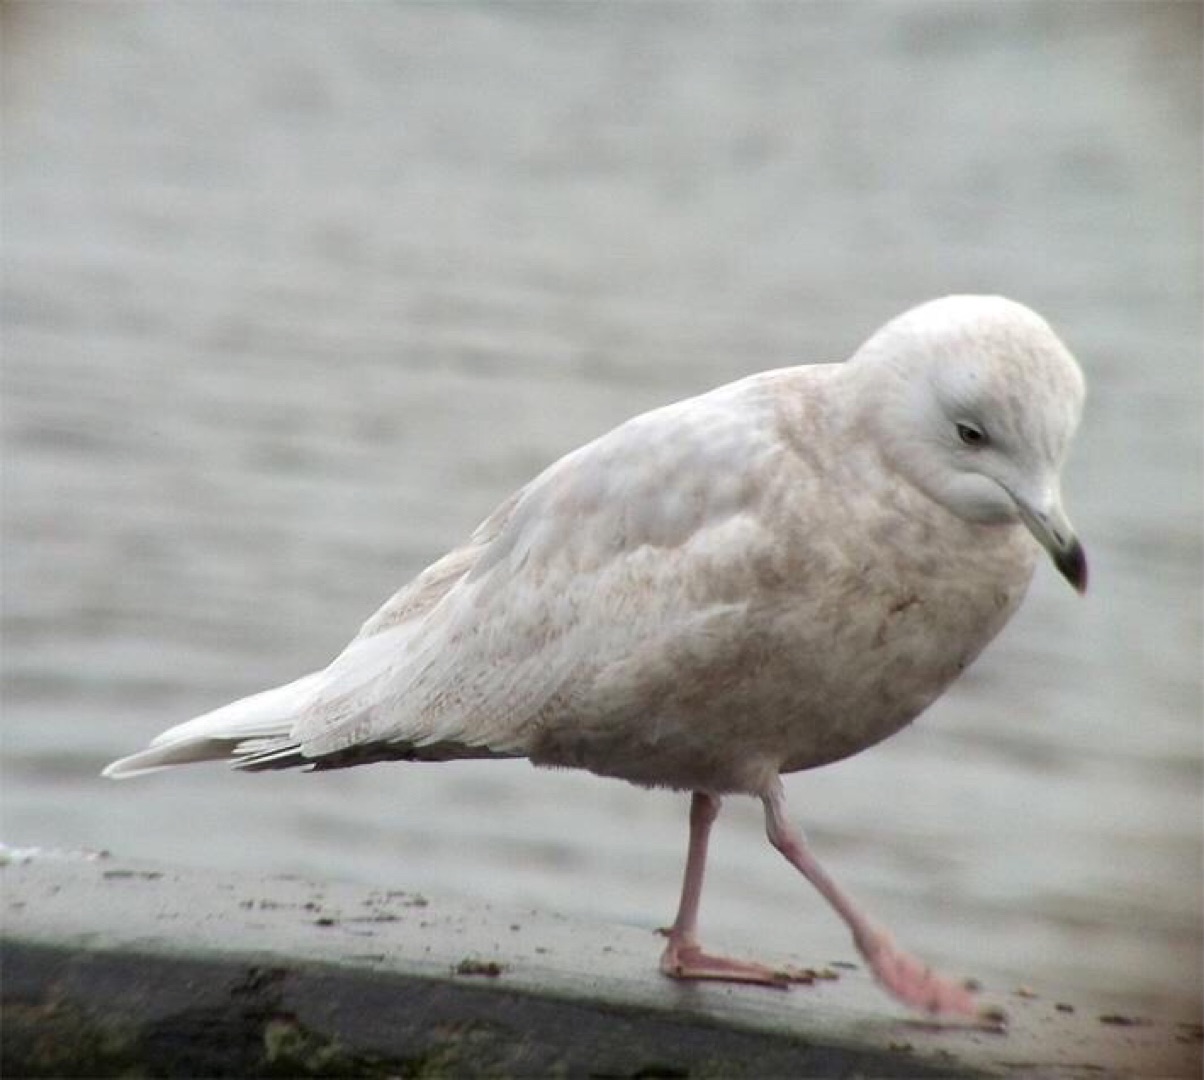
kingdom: Animalia
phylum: Chordata
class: Aves
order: Charadriiformes
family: Laridae
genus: Larus
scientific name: Larus glaucoides
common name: Hvidvinget måge
